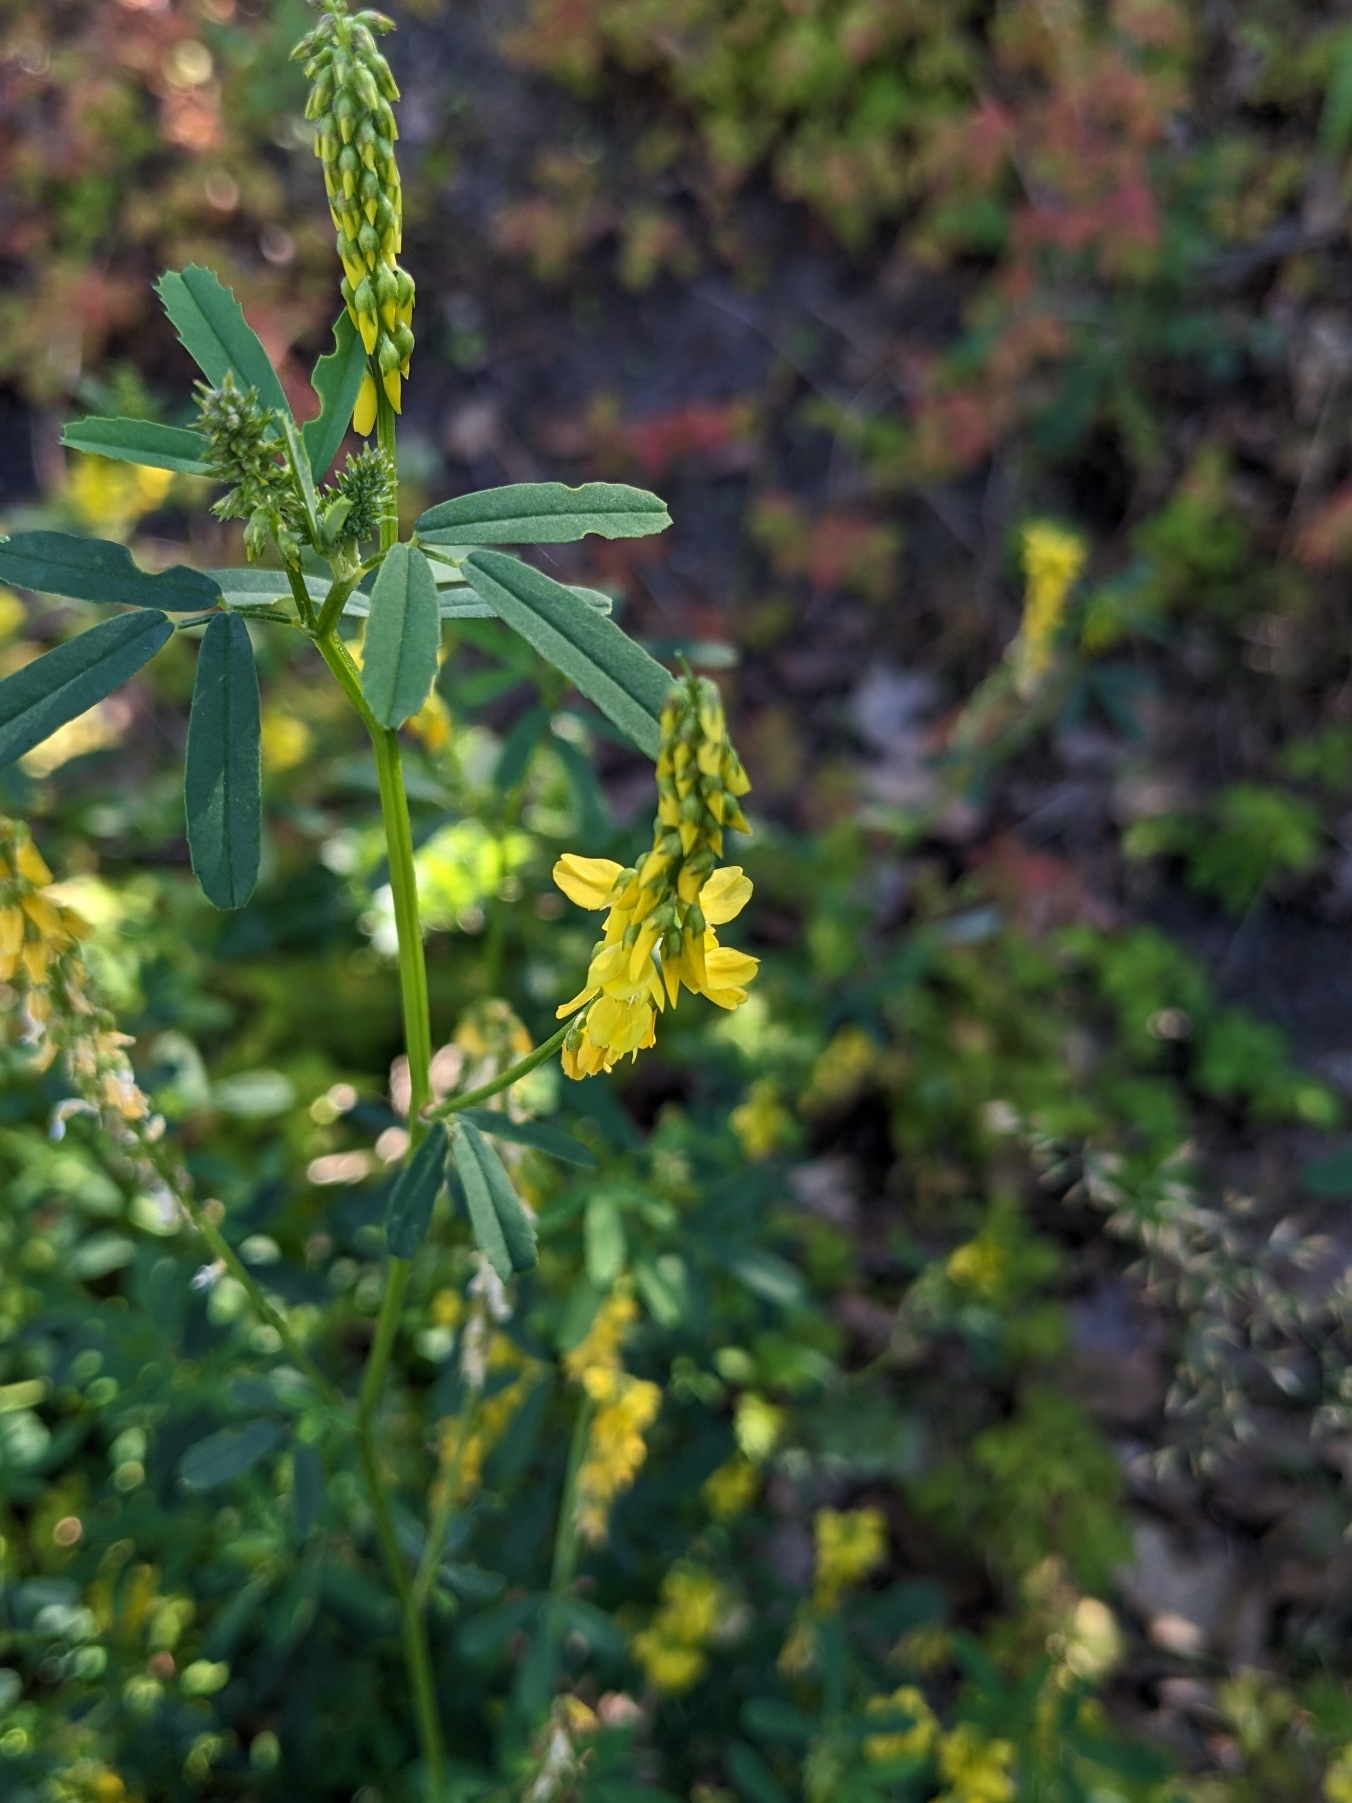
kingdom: Plantae
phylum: Tracheophyta
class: Magnoliopsida
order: Fabales
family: Fabaceae
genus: Melilotus
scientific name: Melilotus
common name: Stenkløverslægten
